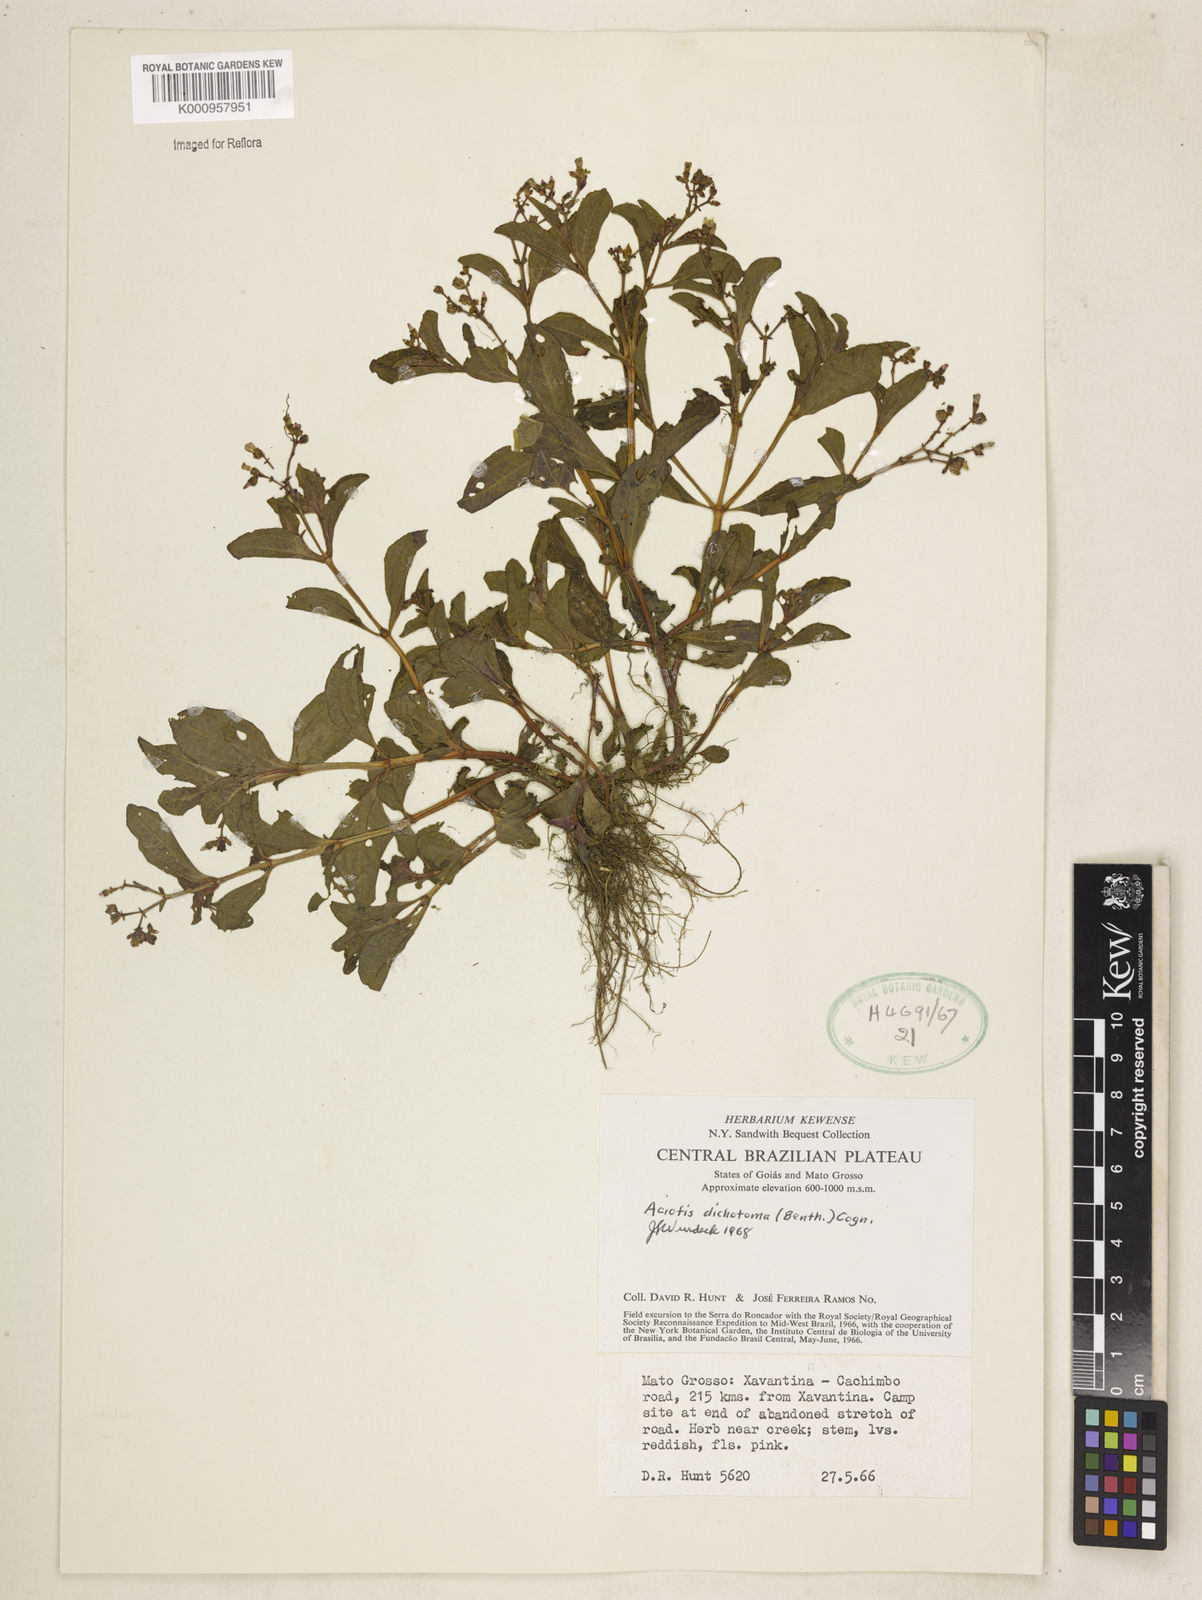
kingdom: Plantae
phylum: Tracheophyta
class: Magnoliopsida
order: Myrtales
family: Melastomataceae
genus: Aciotis
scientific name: Aciotis acuminifolia
